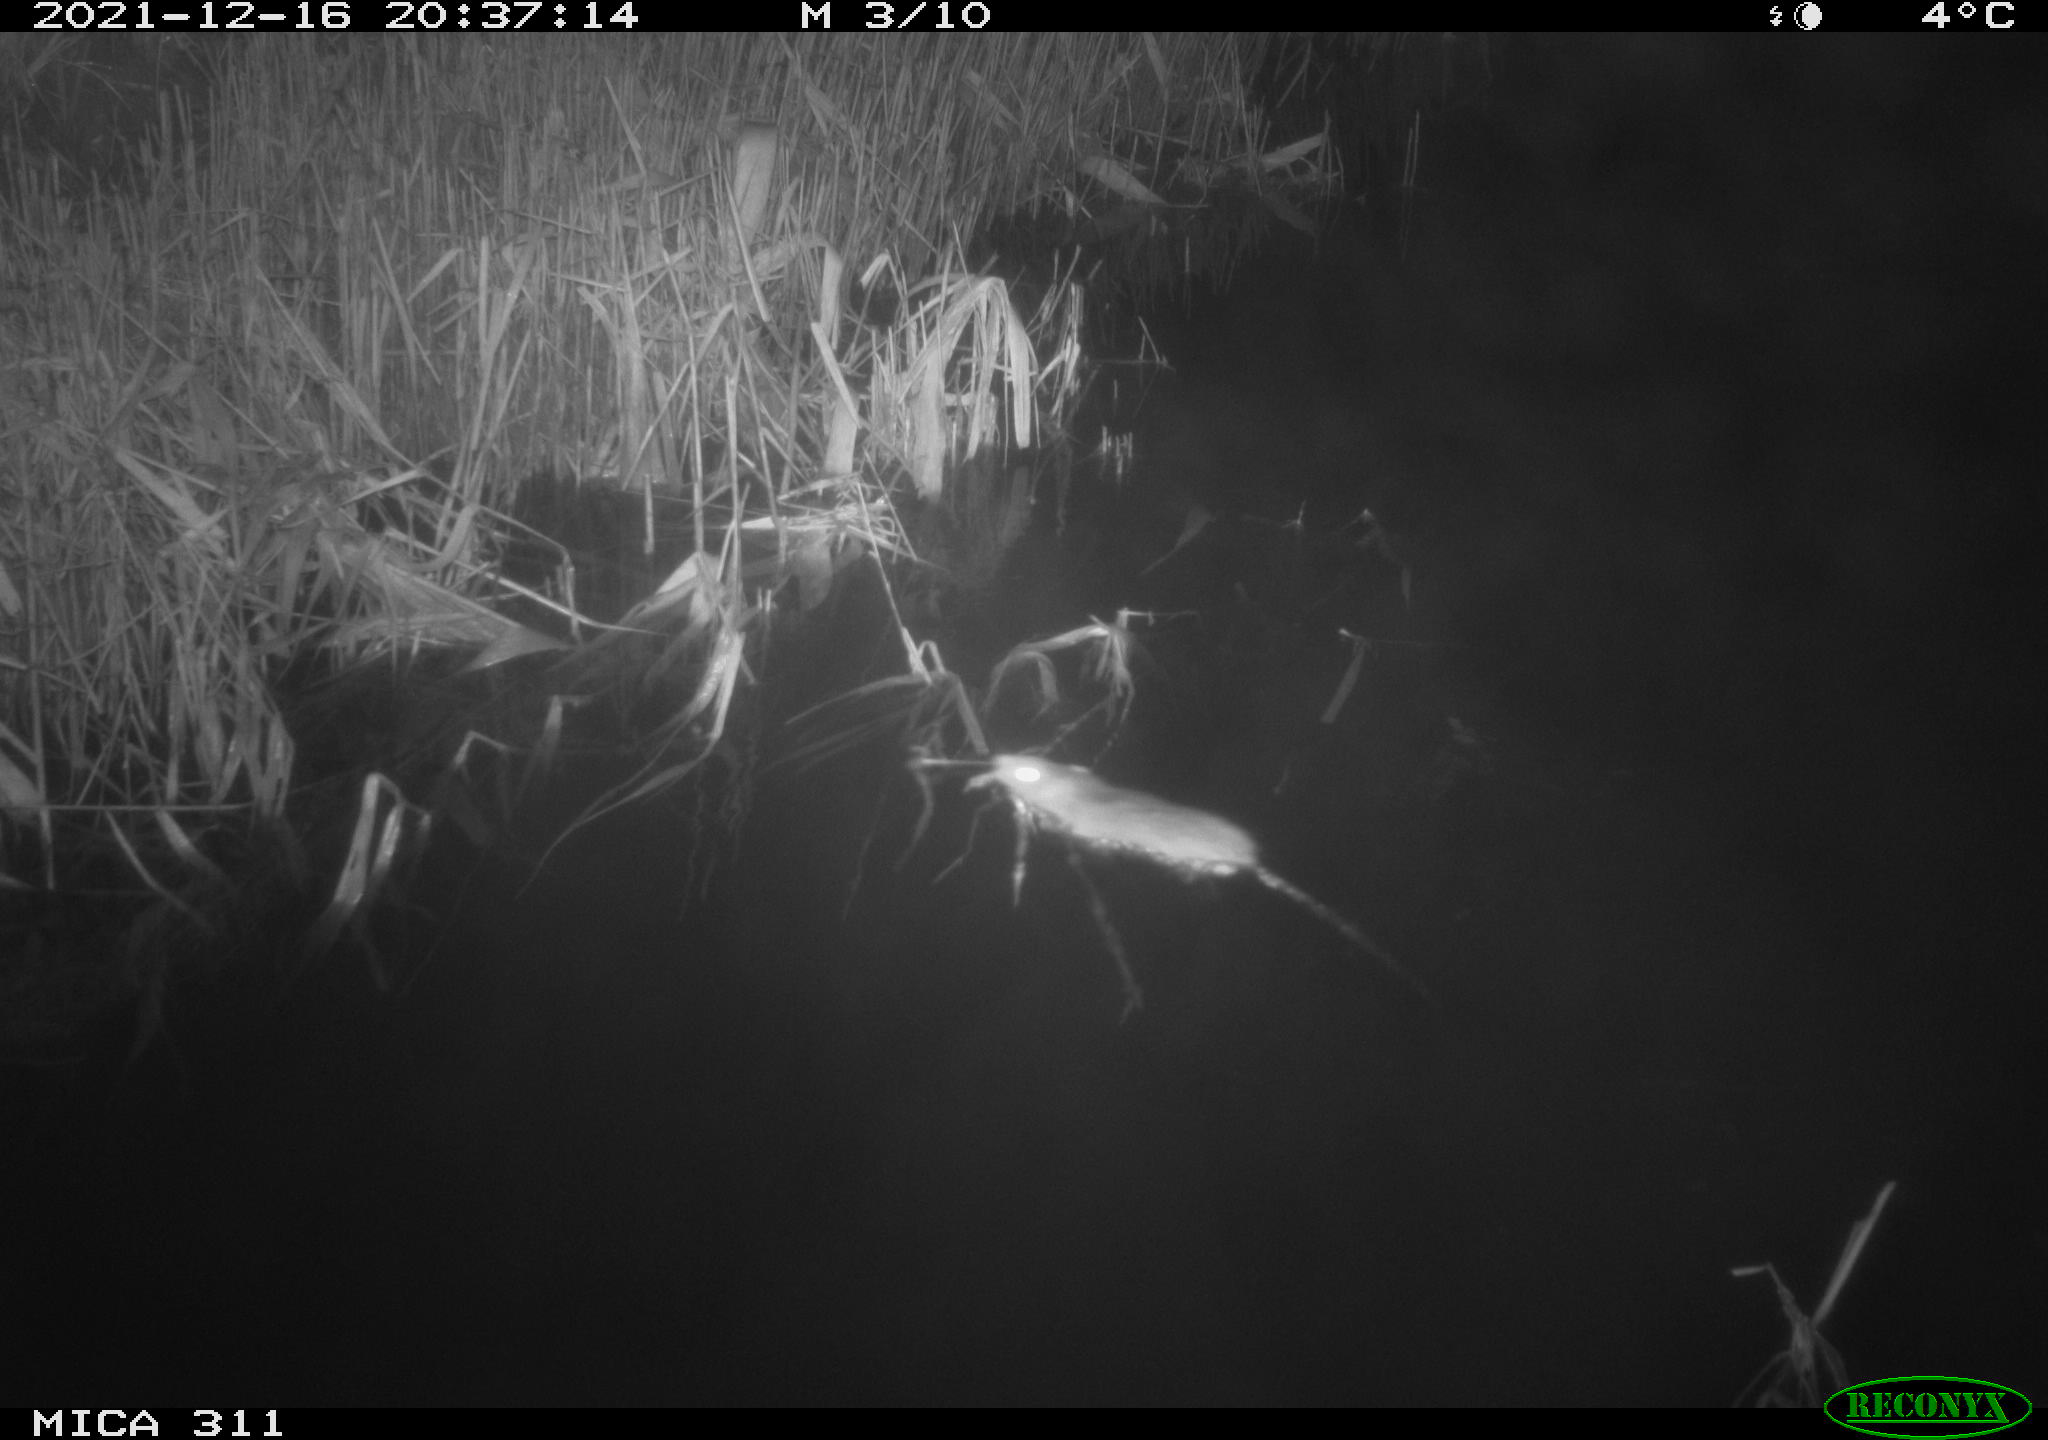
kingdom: Animalia
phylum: Chordata
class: Mammalia
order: Rodentia
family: Muridae
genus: Rattus
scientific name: Rattus norvegicus
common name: Brown rat
